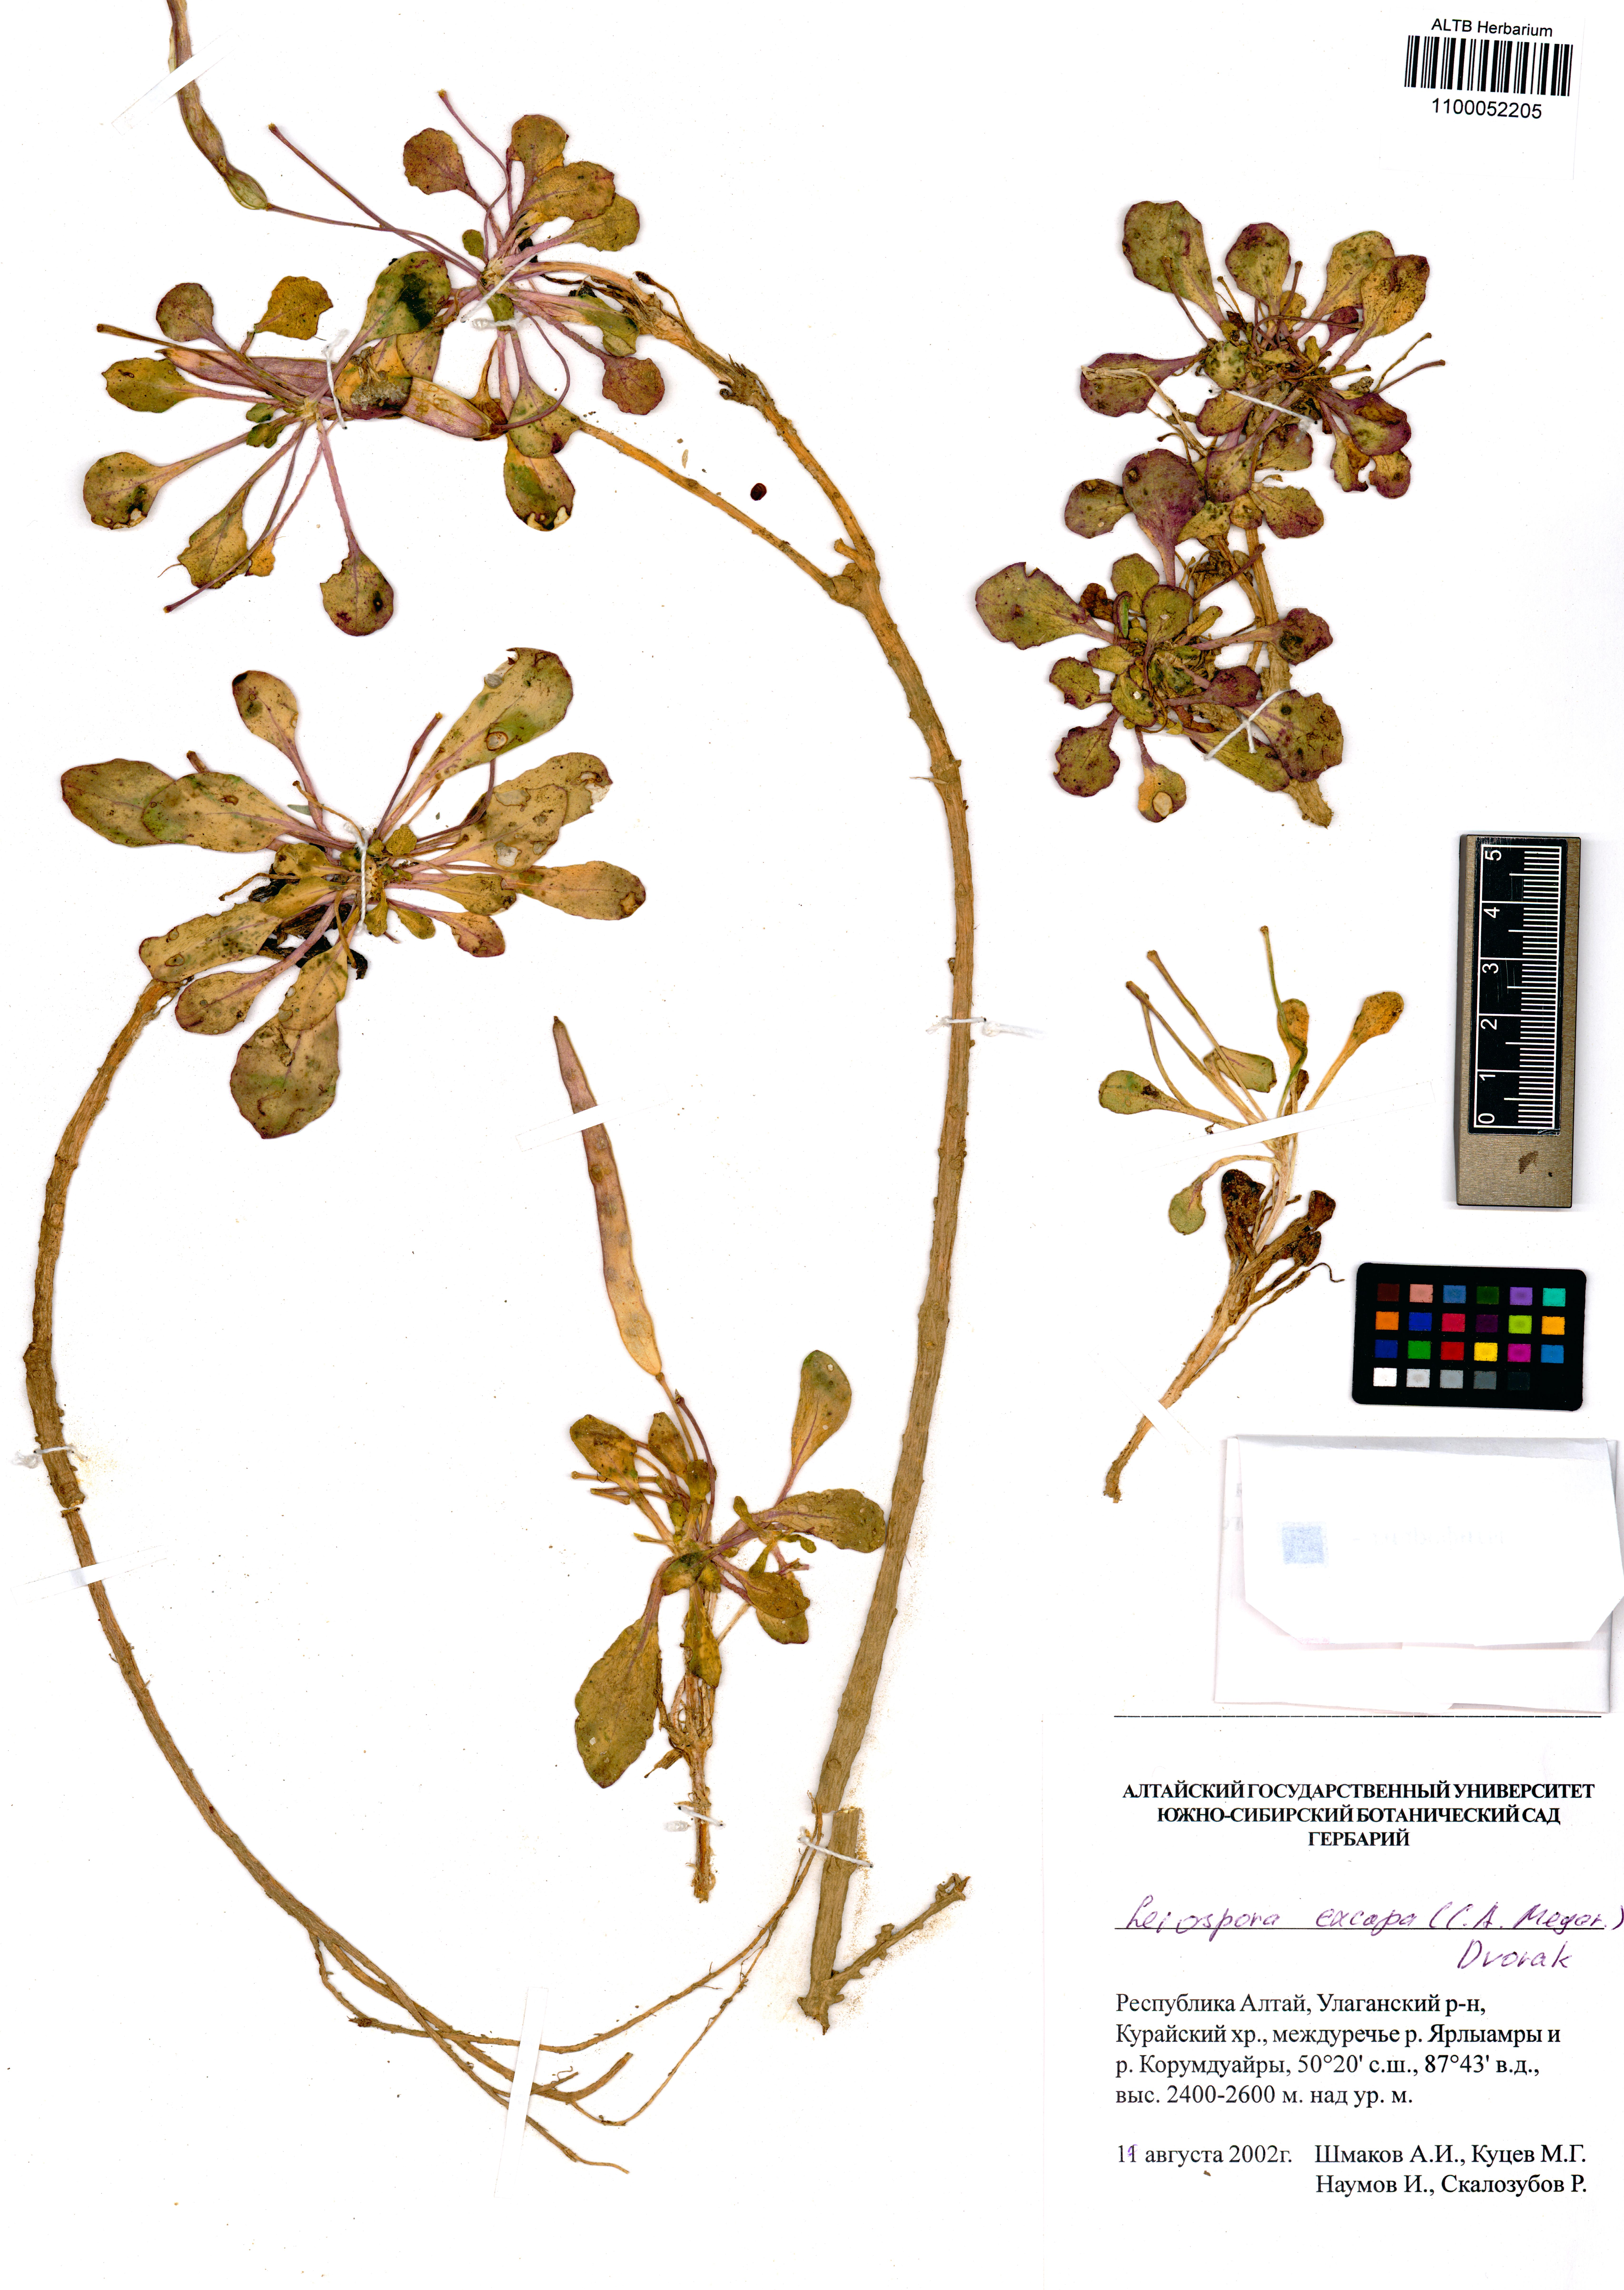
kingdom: Plantae
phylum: Tracheophyta
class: Magnoliopsida
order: Brassicales
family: Brassicaceae
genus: Leiospora
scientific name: Leiospora exscapa
